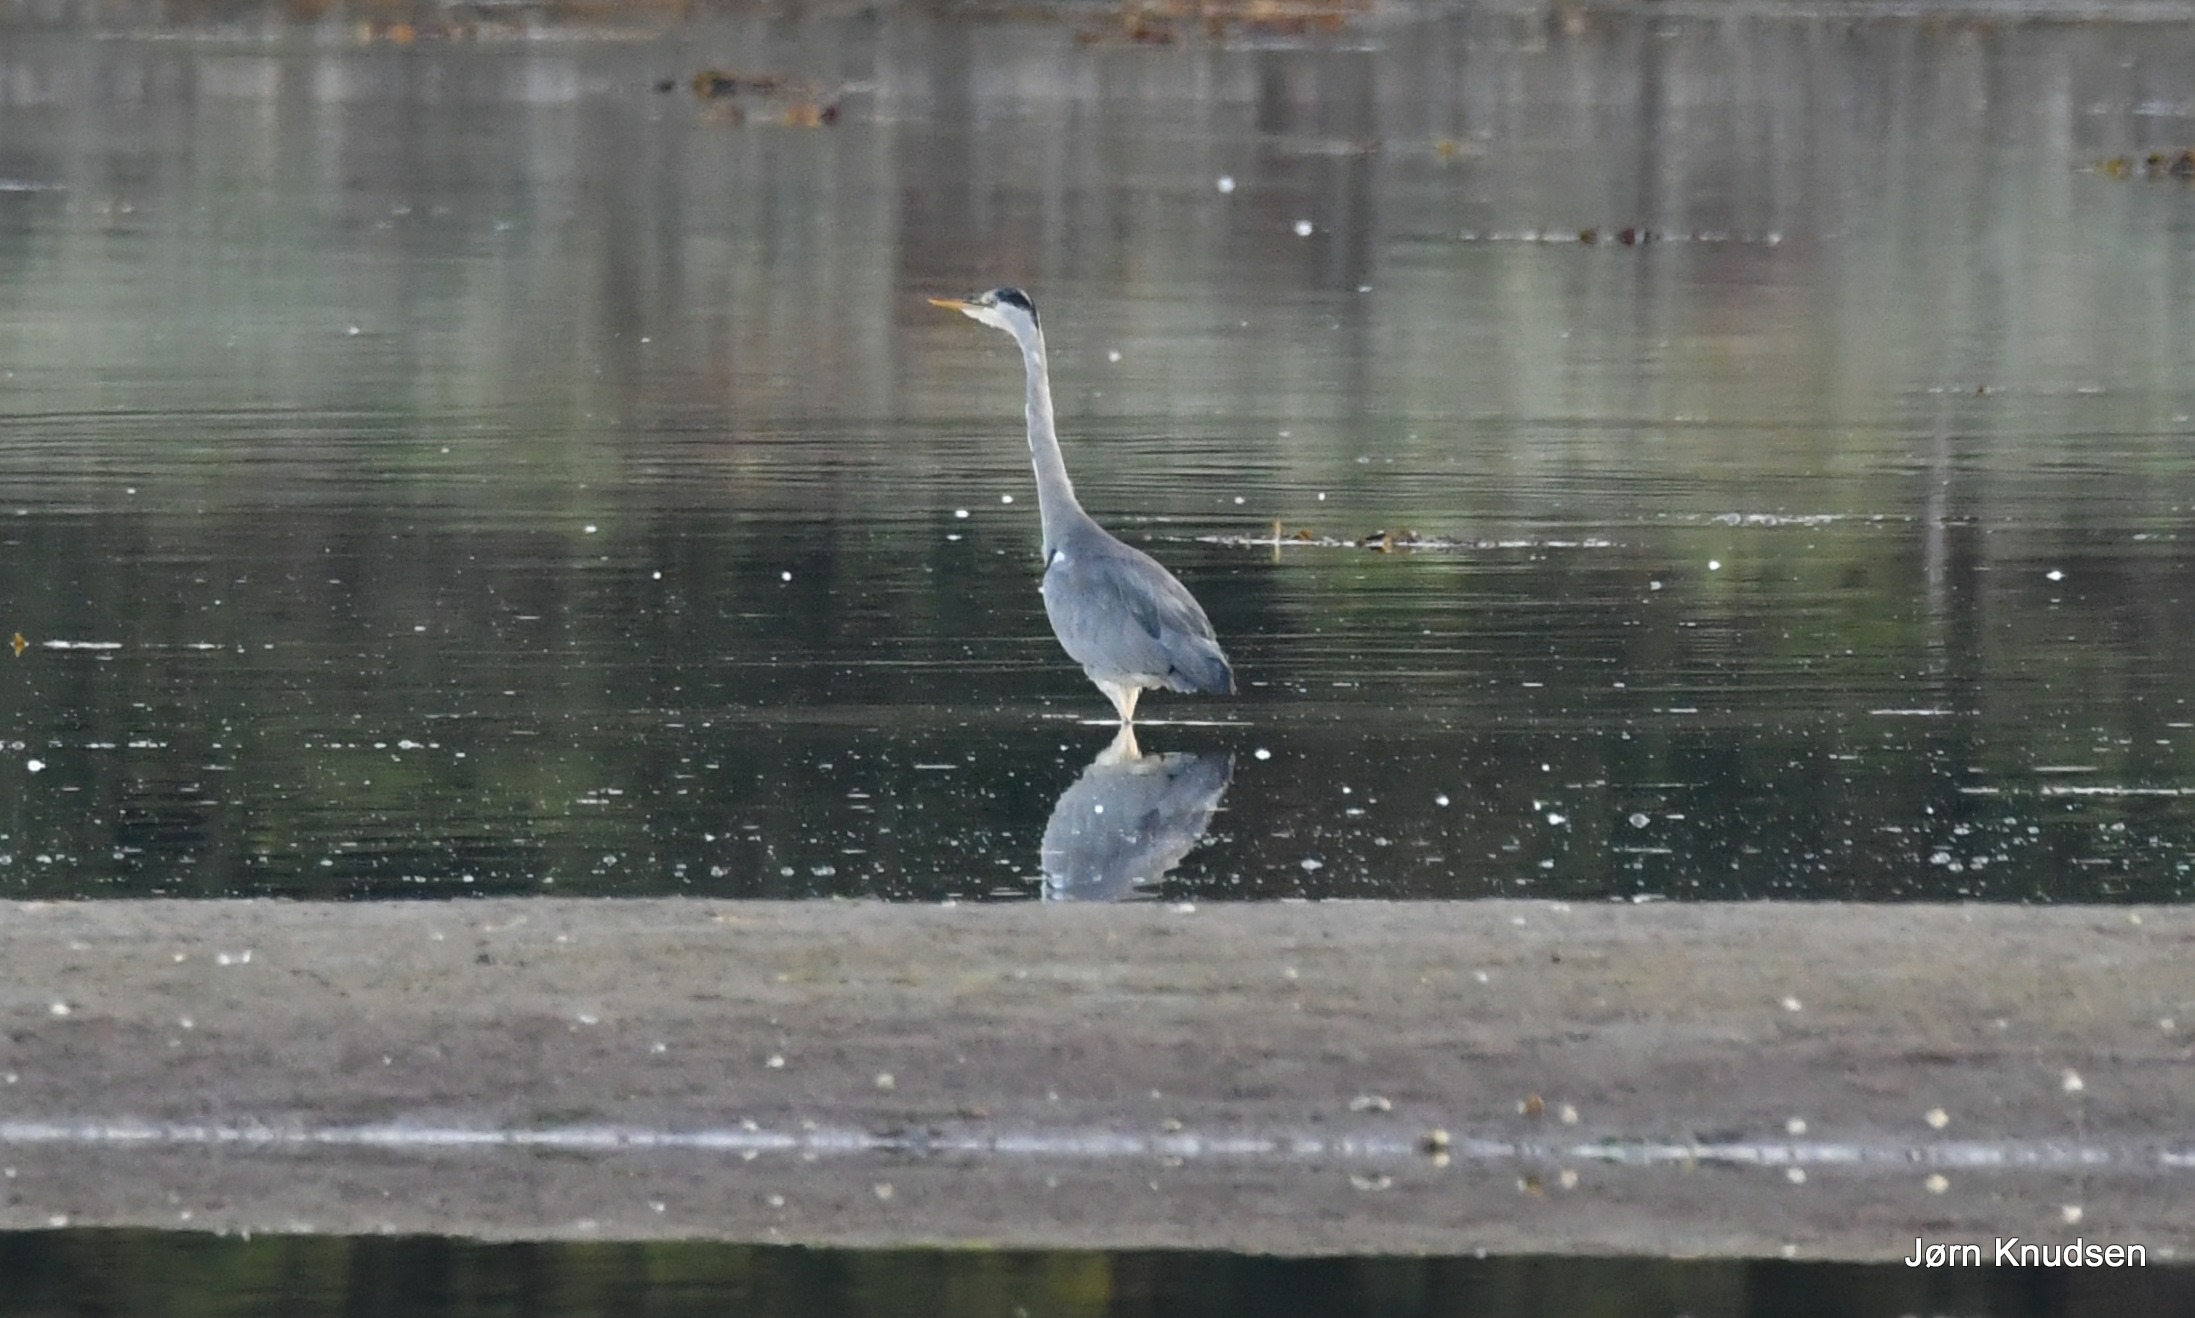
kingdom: Animalia
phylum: Chordata
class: Aves
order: Pelecaniformes
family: Ardeidae
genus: Ardea
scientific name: Ardea cinerea
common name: Fiskehejre
